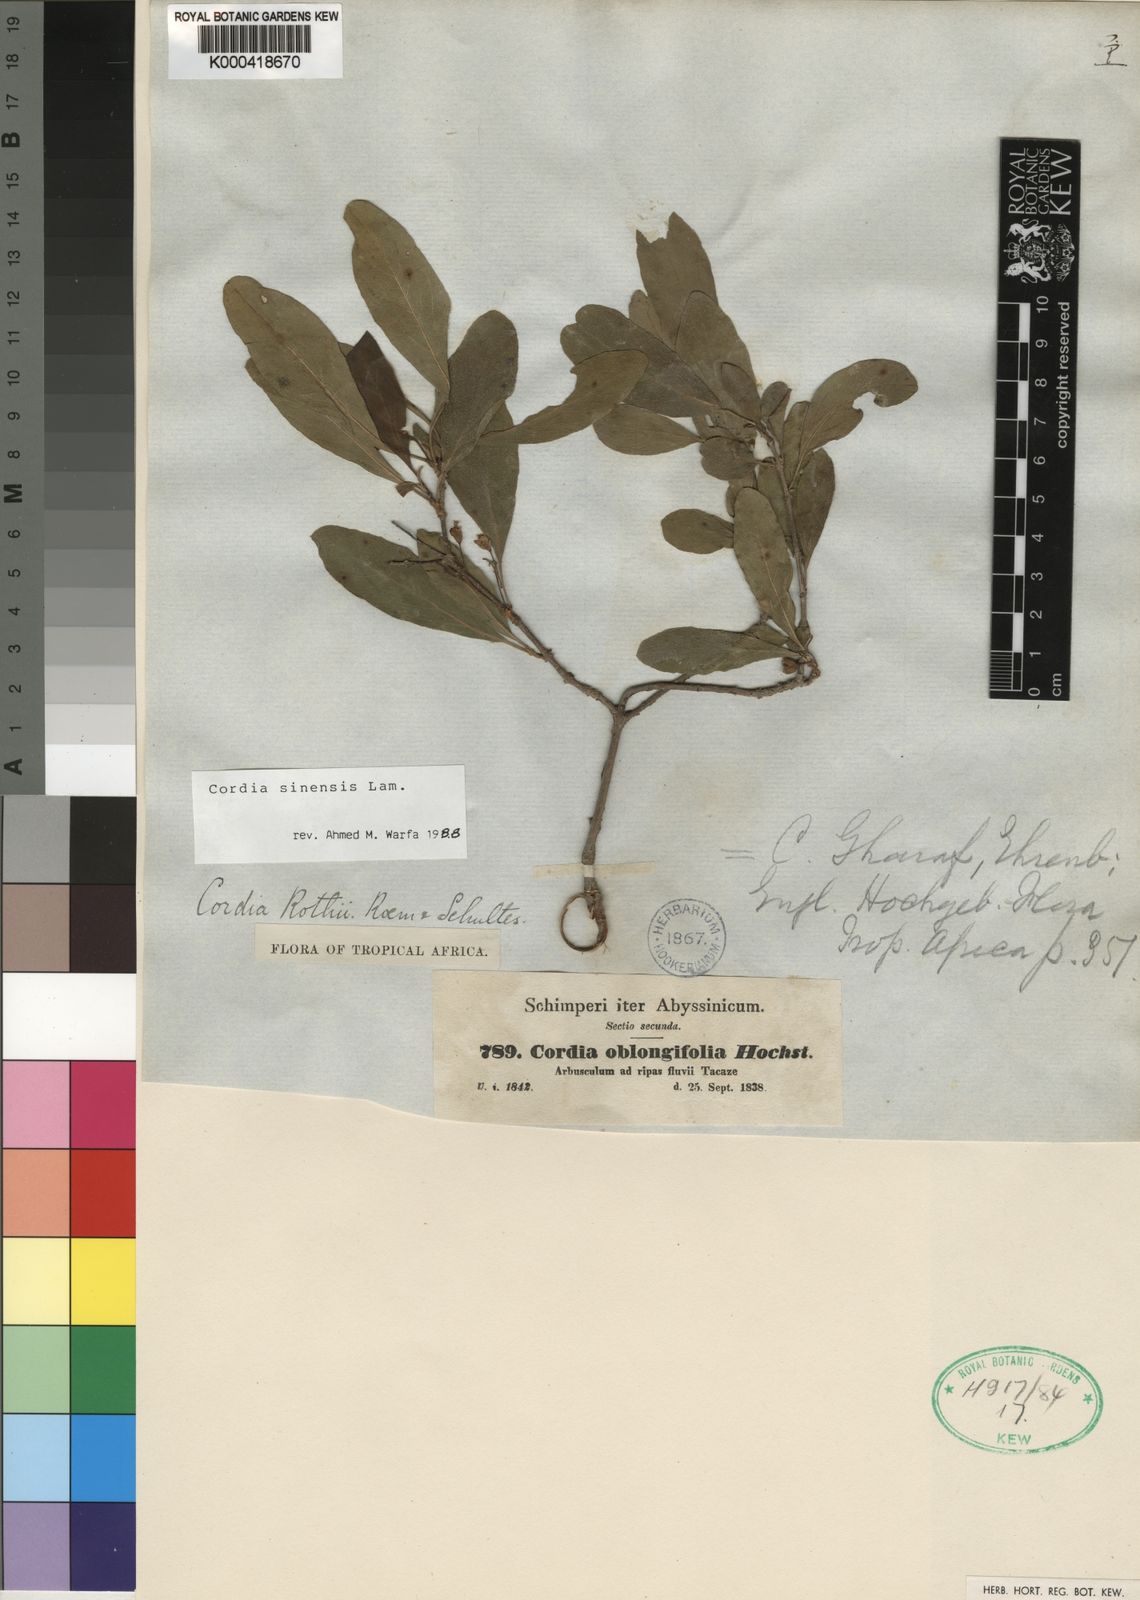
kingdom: Plantae
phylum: Tracheophyta
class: Magnoliopsida
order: Boraginales
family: Cordiaceae
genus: Cordia
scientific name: Cordia sinensis
